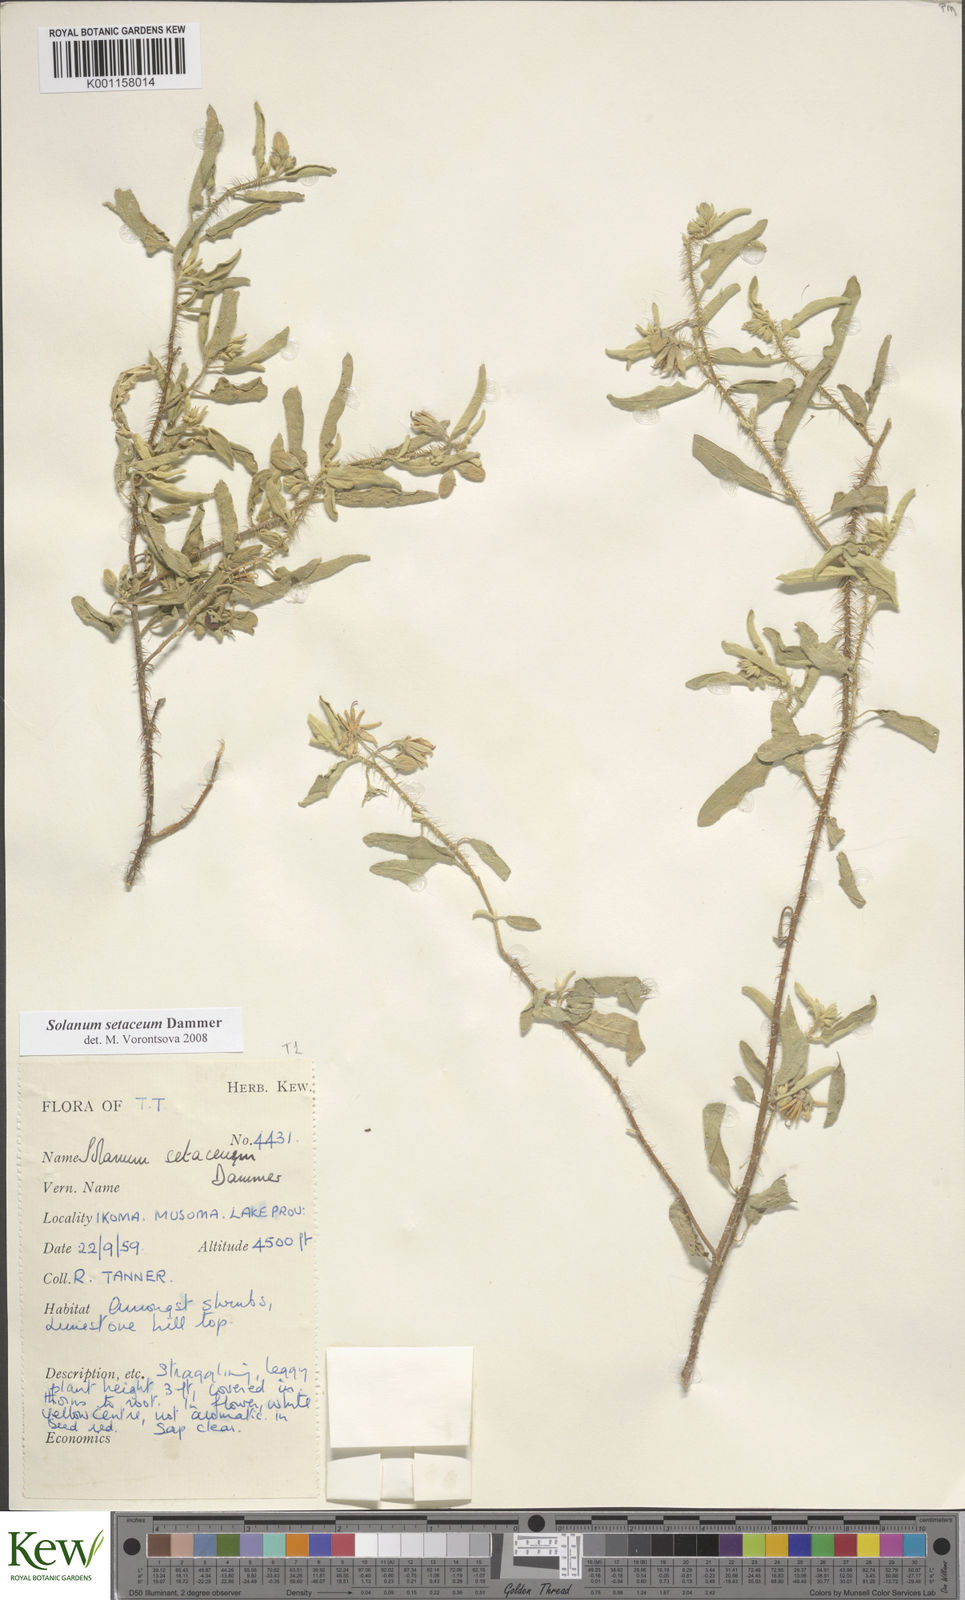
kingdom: Plantae
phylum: Tracheophyta
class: Magnoliopsida
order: Solanales
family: Solanaceae
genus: Solanum
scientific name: Solanum setaceum
